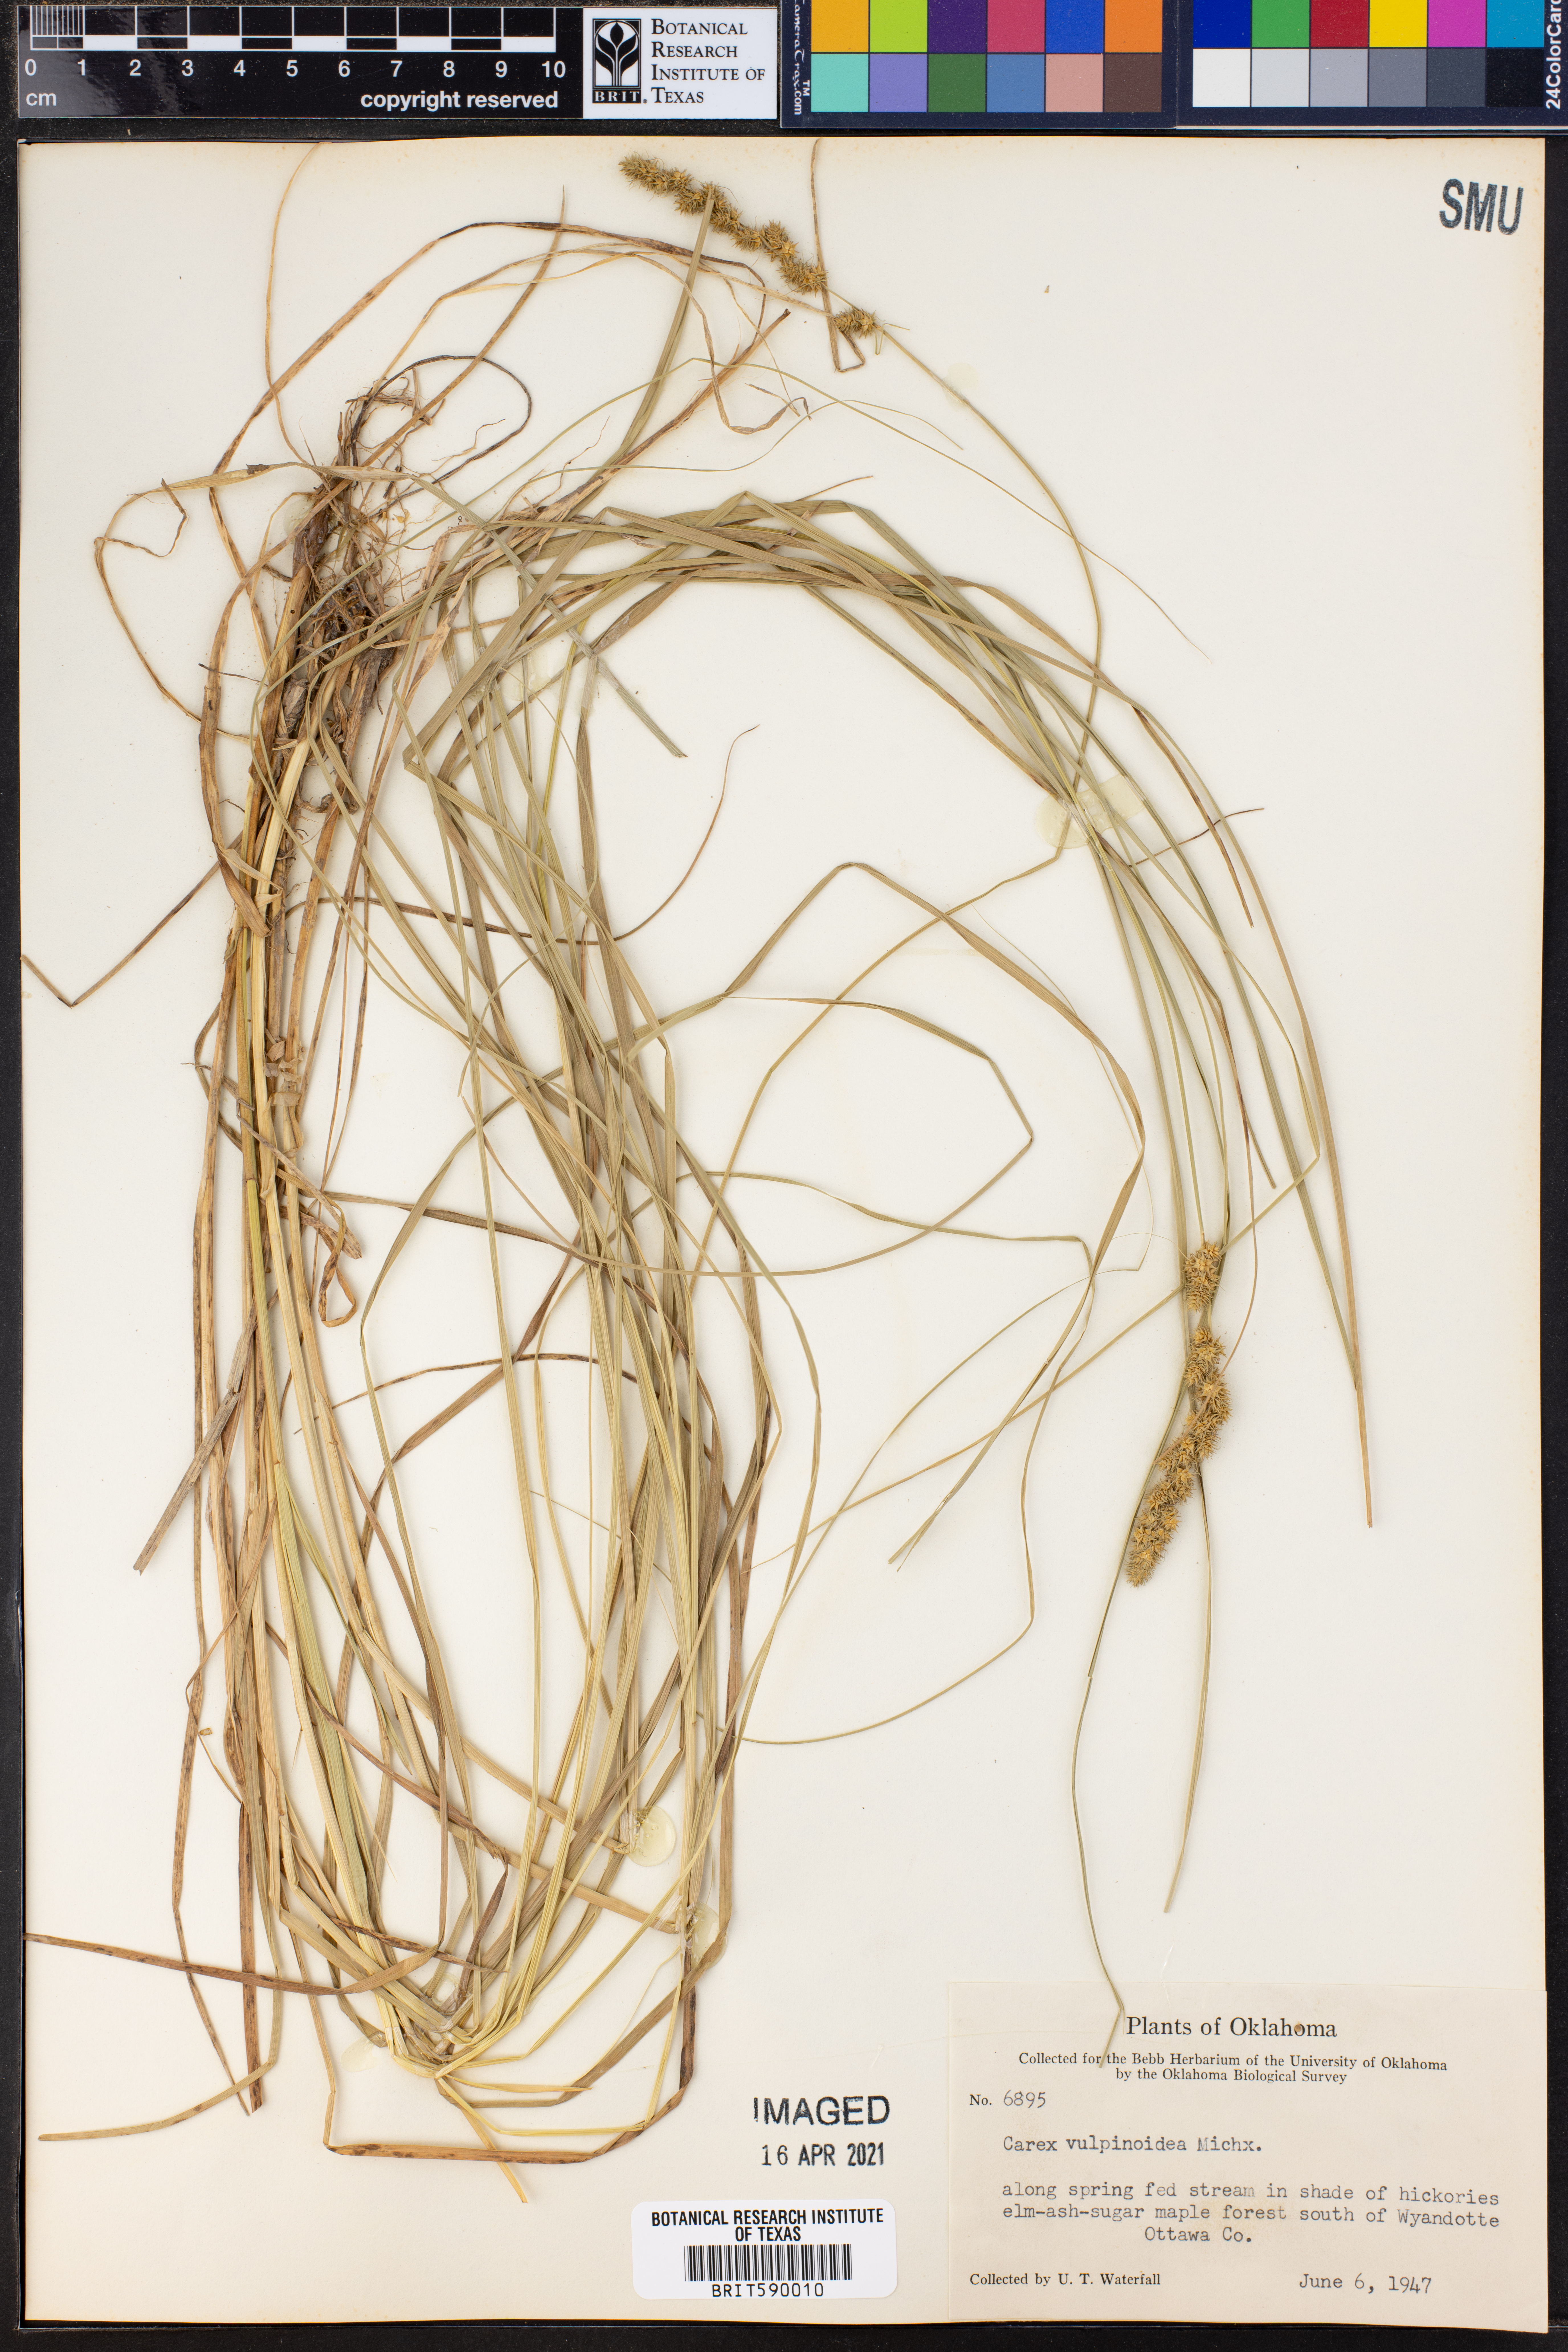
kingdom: Plantae
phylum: Tracheophyta
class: Liliopsida
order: Poales
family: Cyperaceae
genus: Carex
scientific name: Carex vulpinoidea
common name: American fox-sedge
